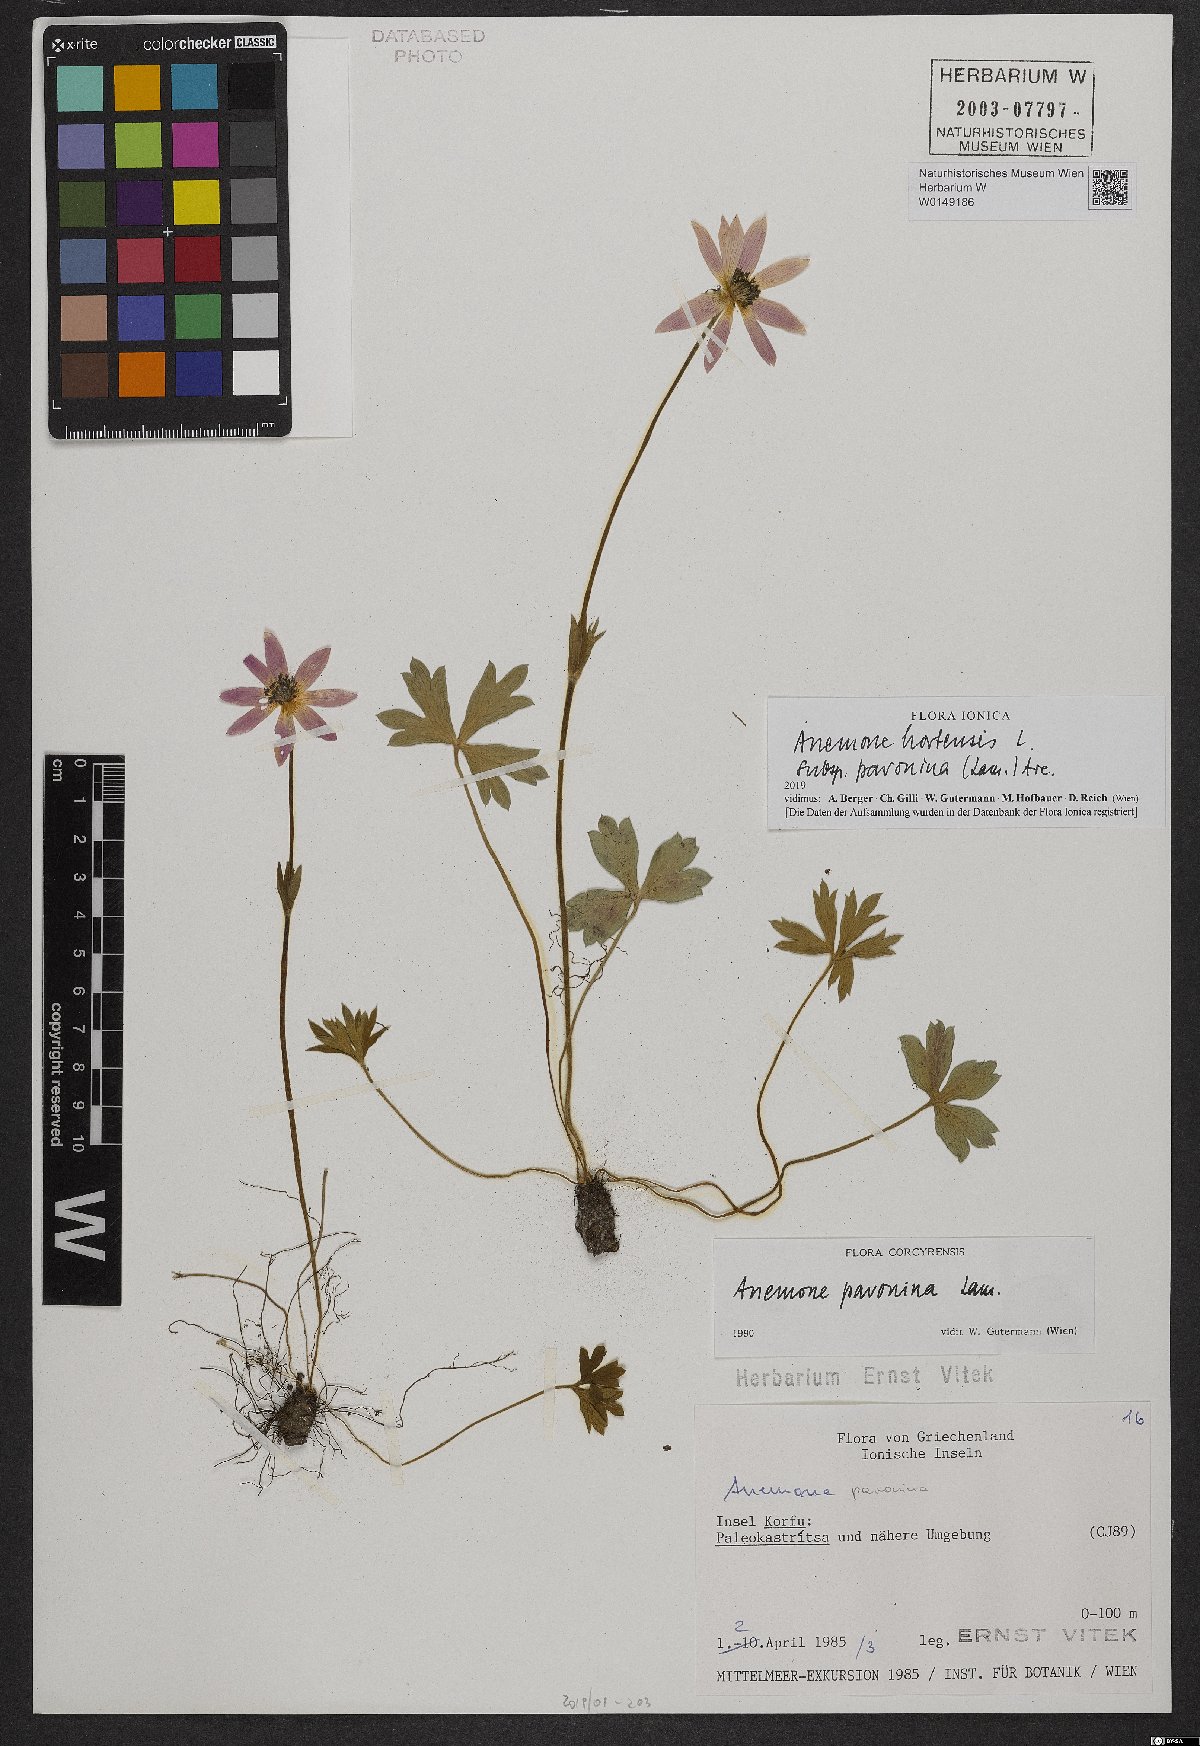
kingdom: Plantae
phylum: Tracheophyta
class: Magnoliopsida
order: Ranunculales
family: Ranunculaceae
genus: Anemone
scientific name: Anemone pavonina
